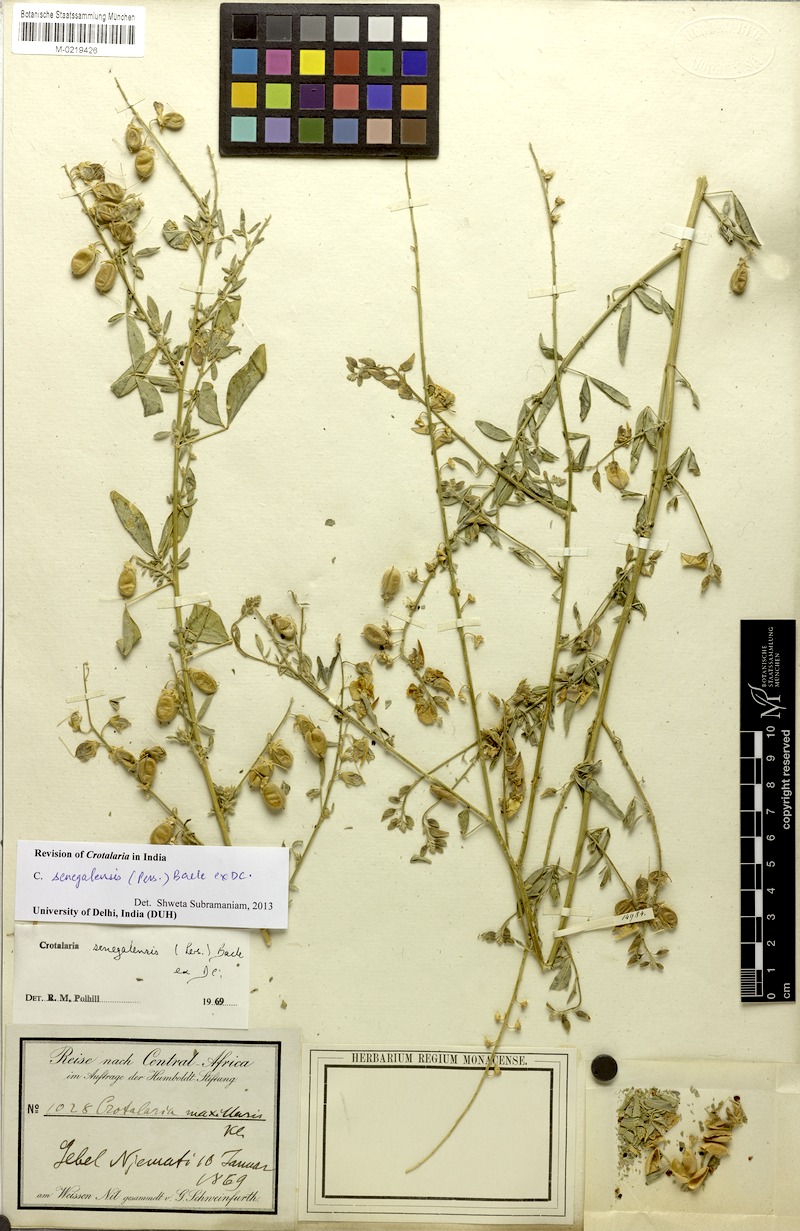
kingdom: Plantae
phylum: Tracheophyta
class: Magnoliopsida
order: Fabales
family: Fabaceae
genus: Crotalaria
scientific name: Crotalaria senegalensis
